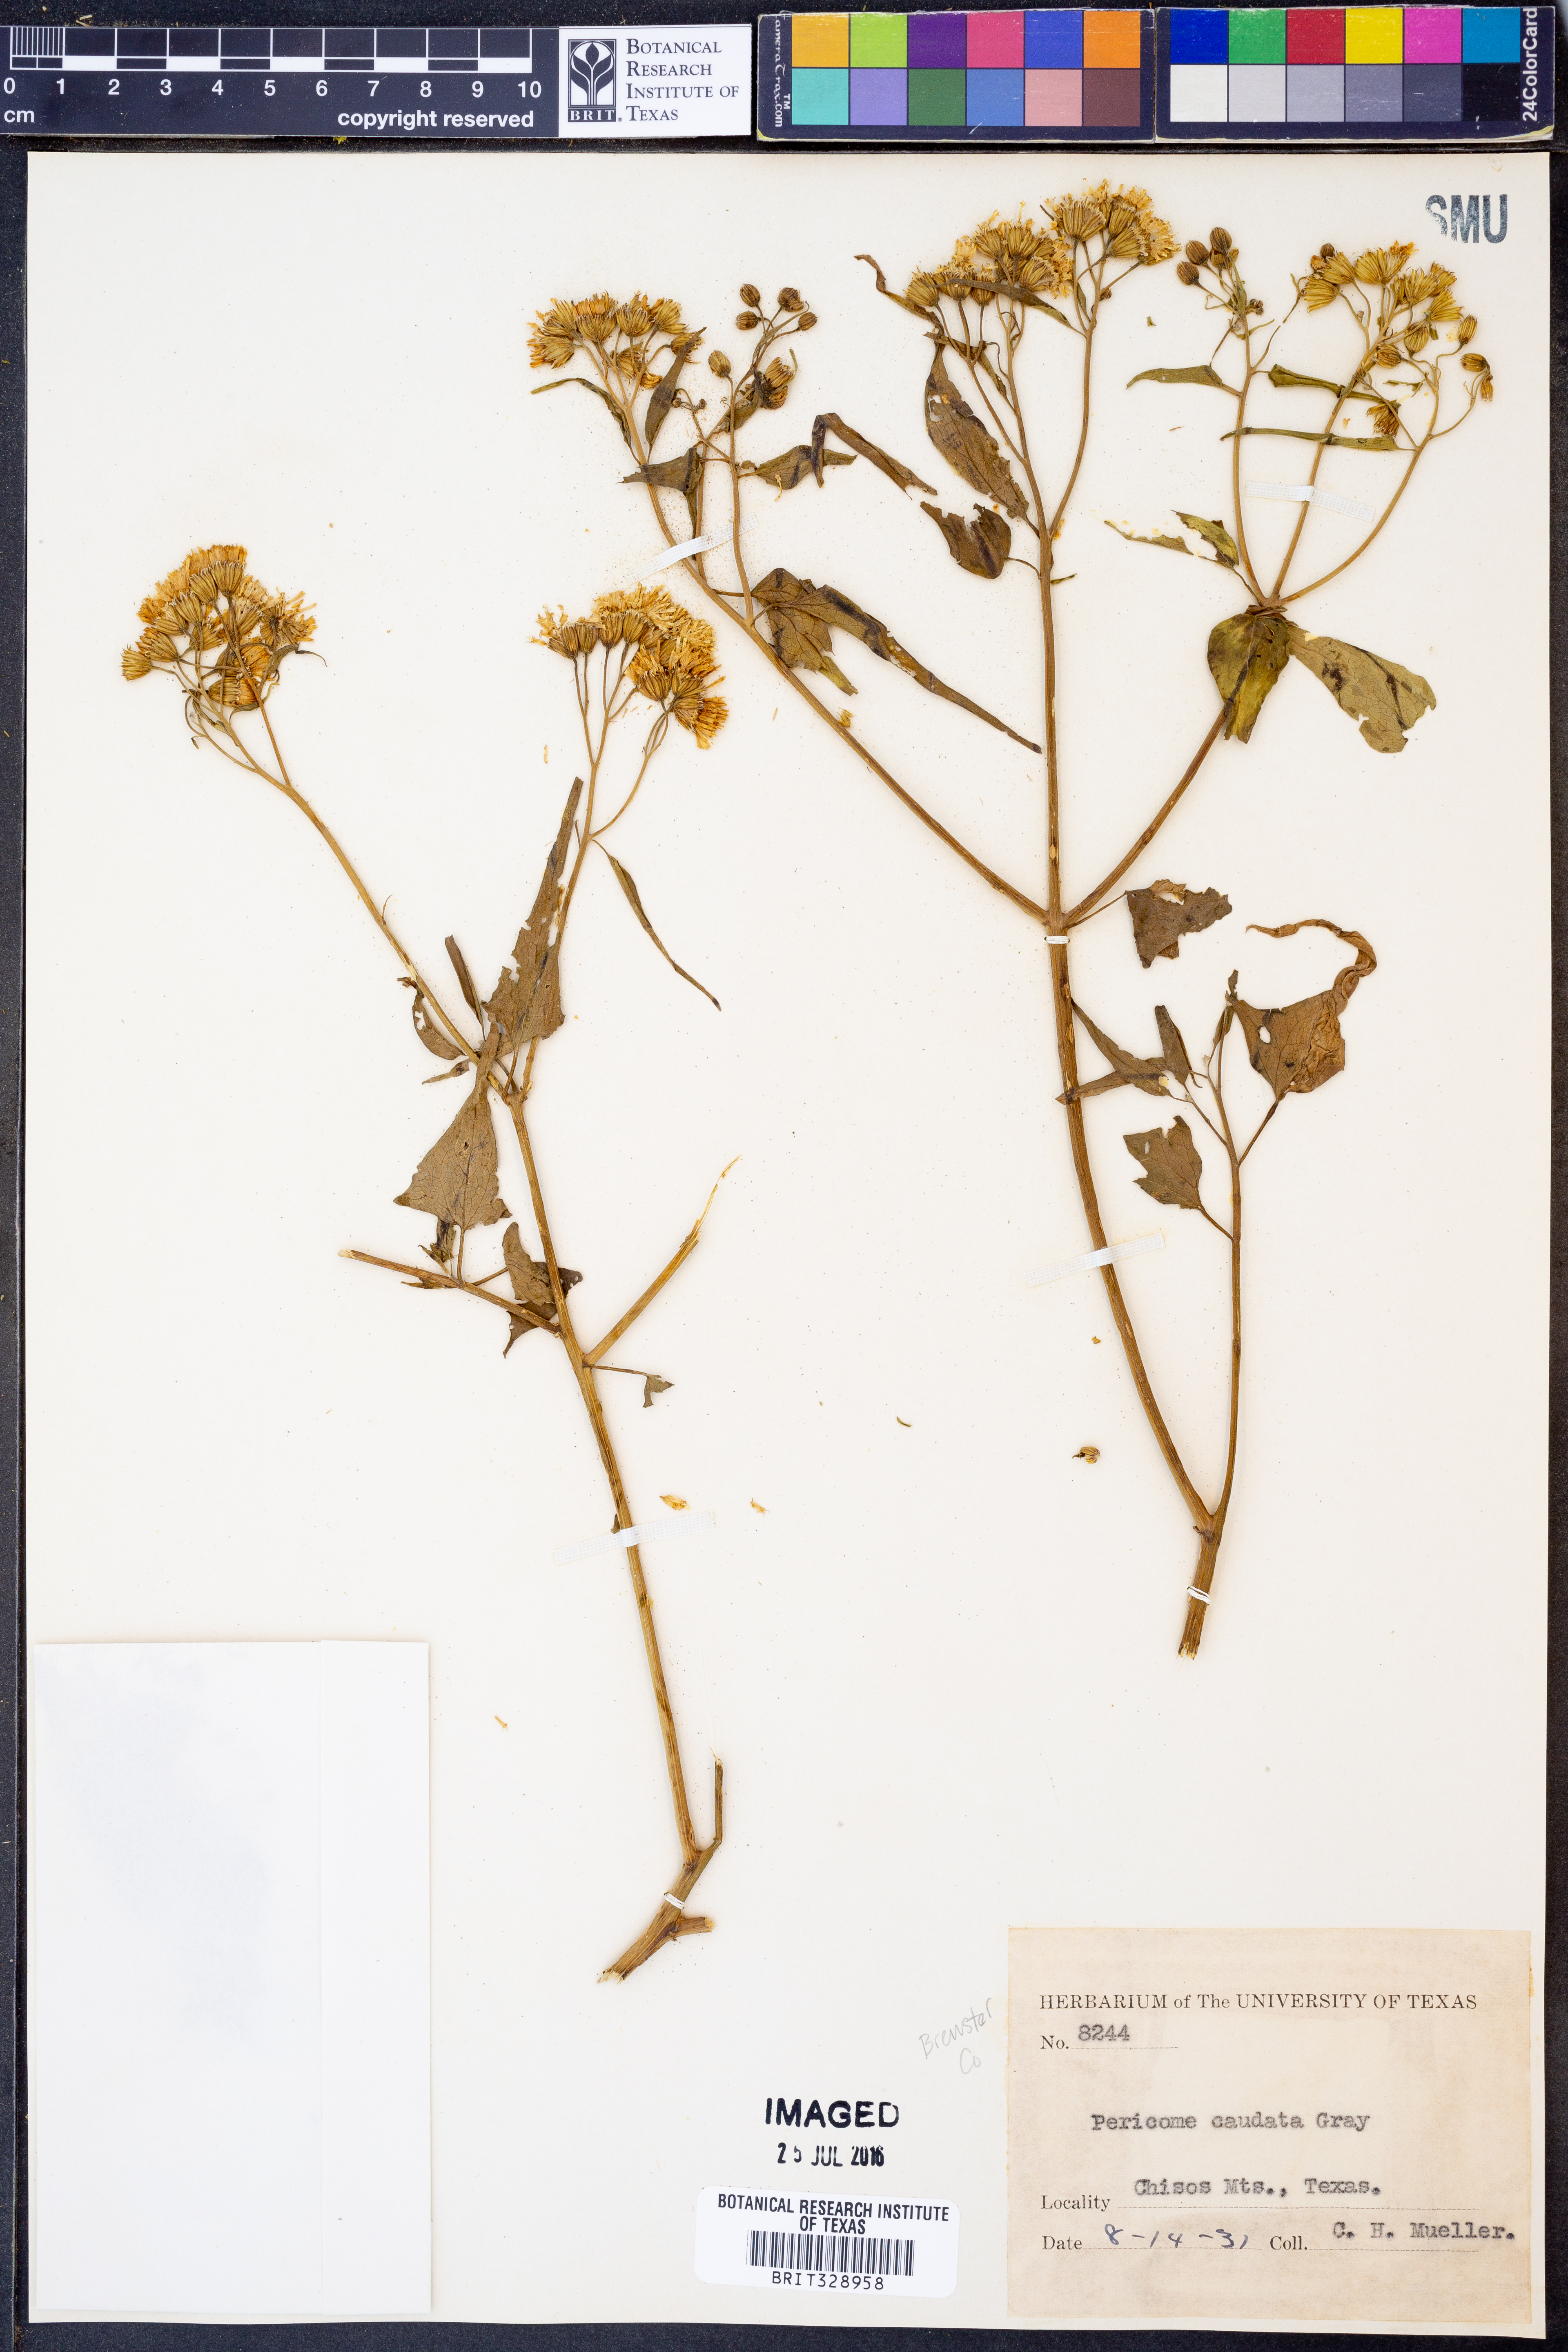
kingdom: Plantae
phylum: Tracheophyta
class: Magnoliopsida
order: Asterales
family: Asteraceae
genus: Pericome
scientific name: Pericome caudata
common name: Taperleaf
